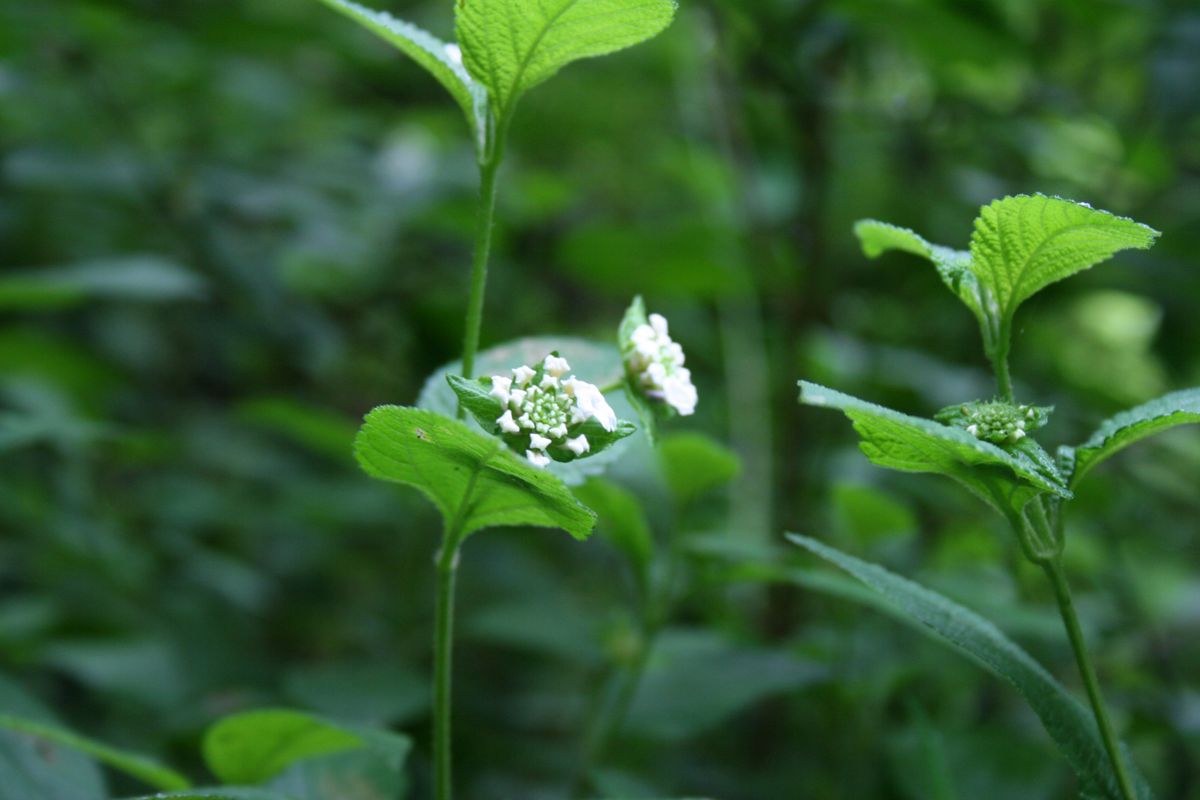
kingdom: Plantae
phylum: Tracheophyta
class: Magnoliopsida
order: Lamiales
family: Verbenaceae
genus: Lantana
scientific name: Lantana hirta
